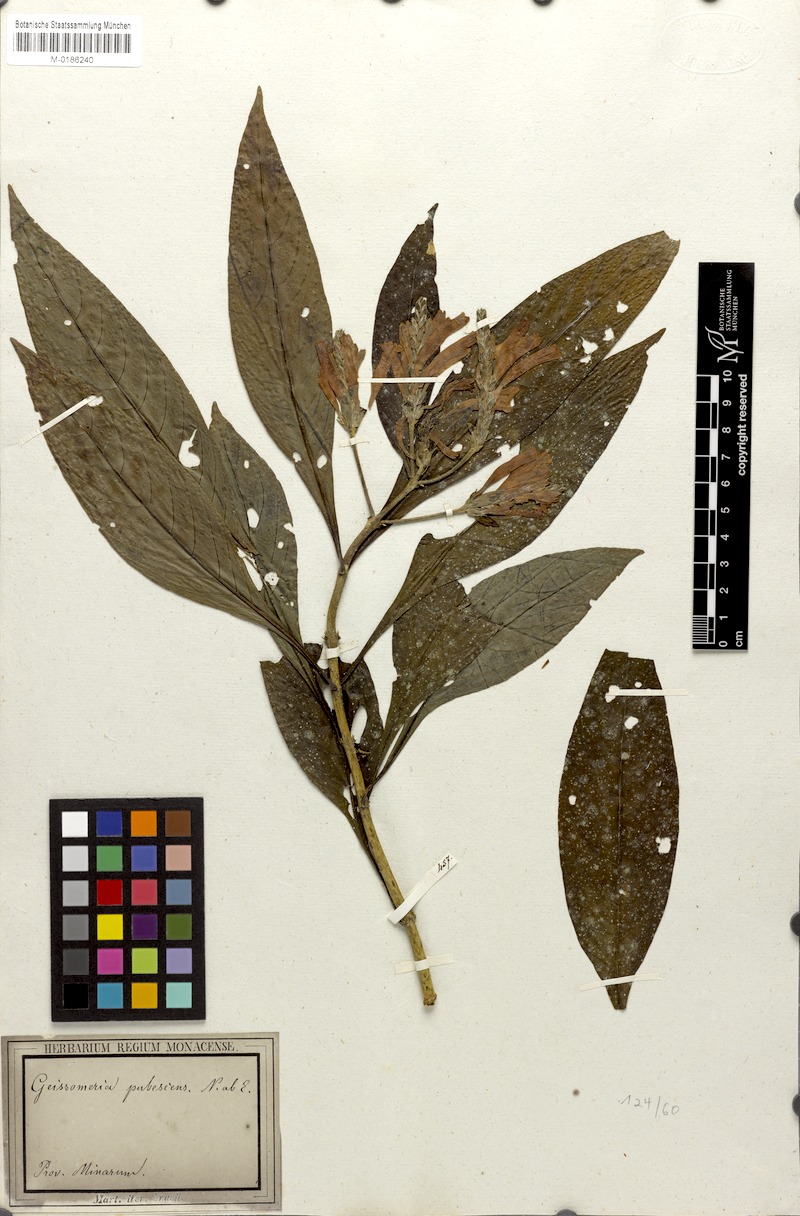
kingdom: Plantae
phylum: Tracheophyta
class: Magnoliopsida
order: Lamiales
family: Acanthaceae
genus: Aphelandra
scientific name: Aphelandra longiflora
